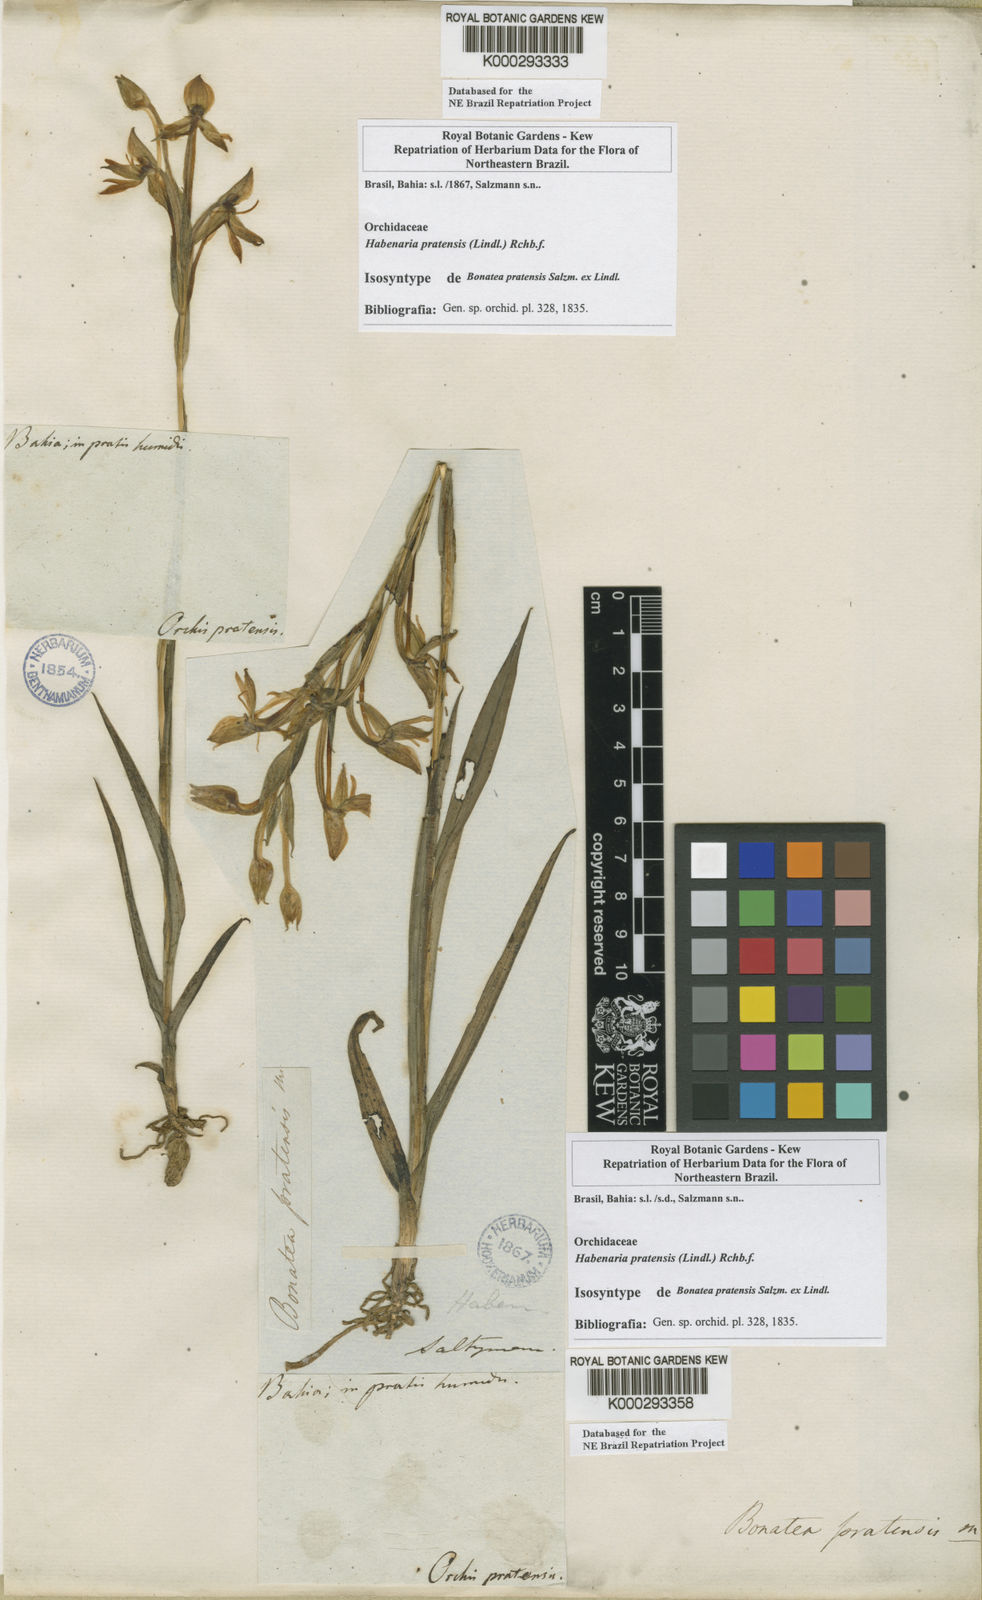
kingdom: Plantae
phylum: Tracheophyta
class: Liliopsida
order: Asparagales
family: Orchidaceae
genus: Habenaria
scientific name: Habenaria pratensis
